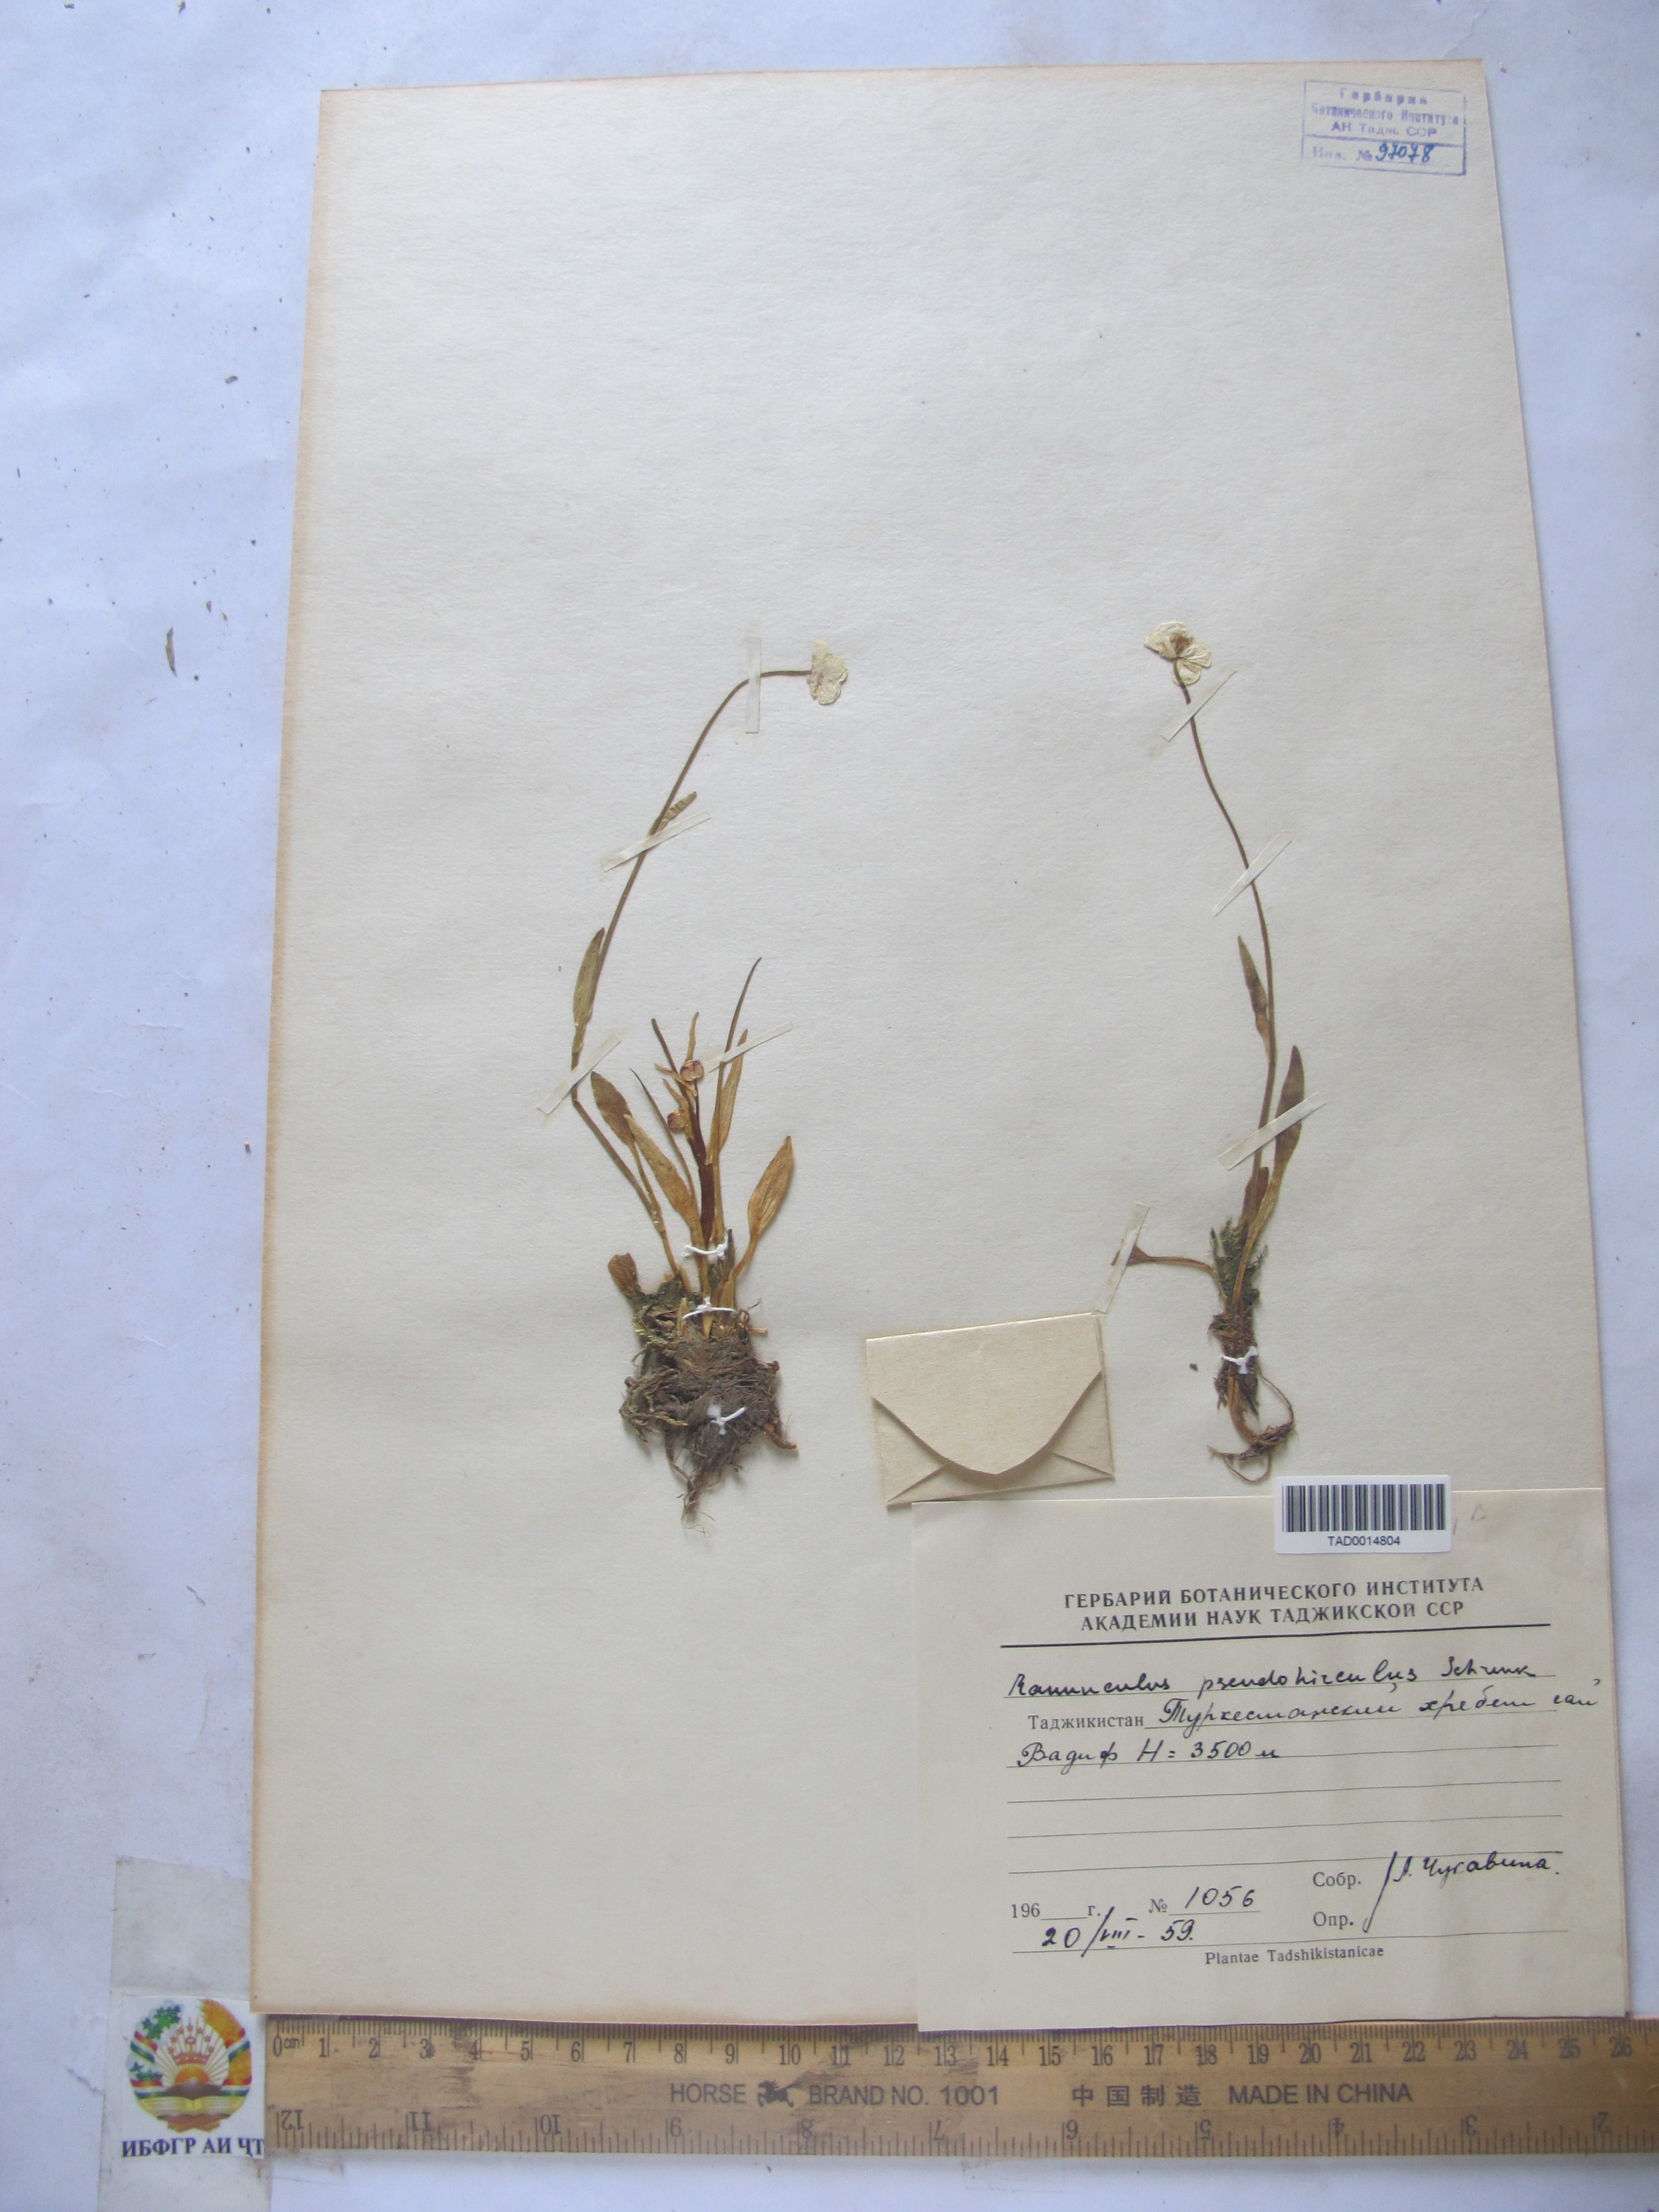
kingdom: Plantae
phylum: Tracheophyta
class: Magnoliopsida
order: Ranunculales
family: Ranunculaceae
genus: Ranunculus
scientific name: Ranunculus pseudohirculus
